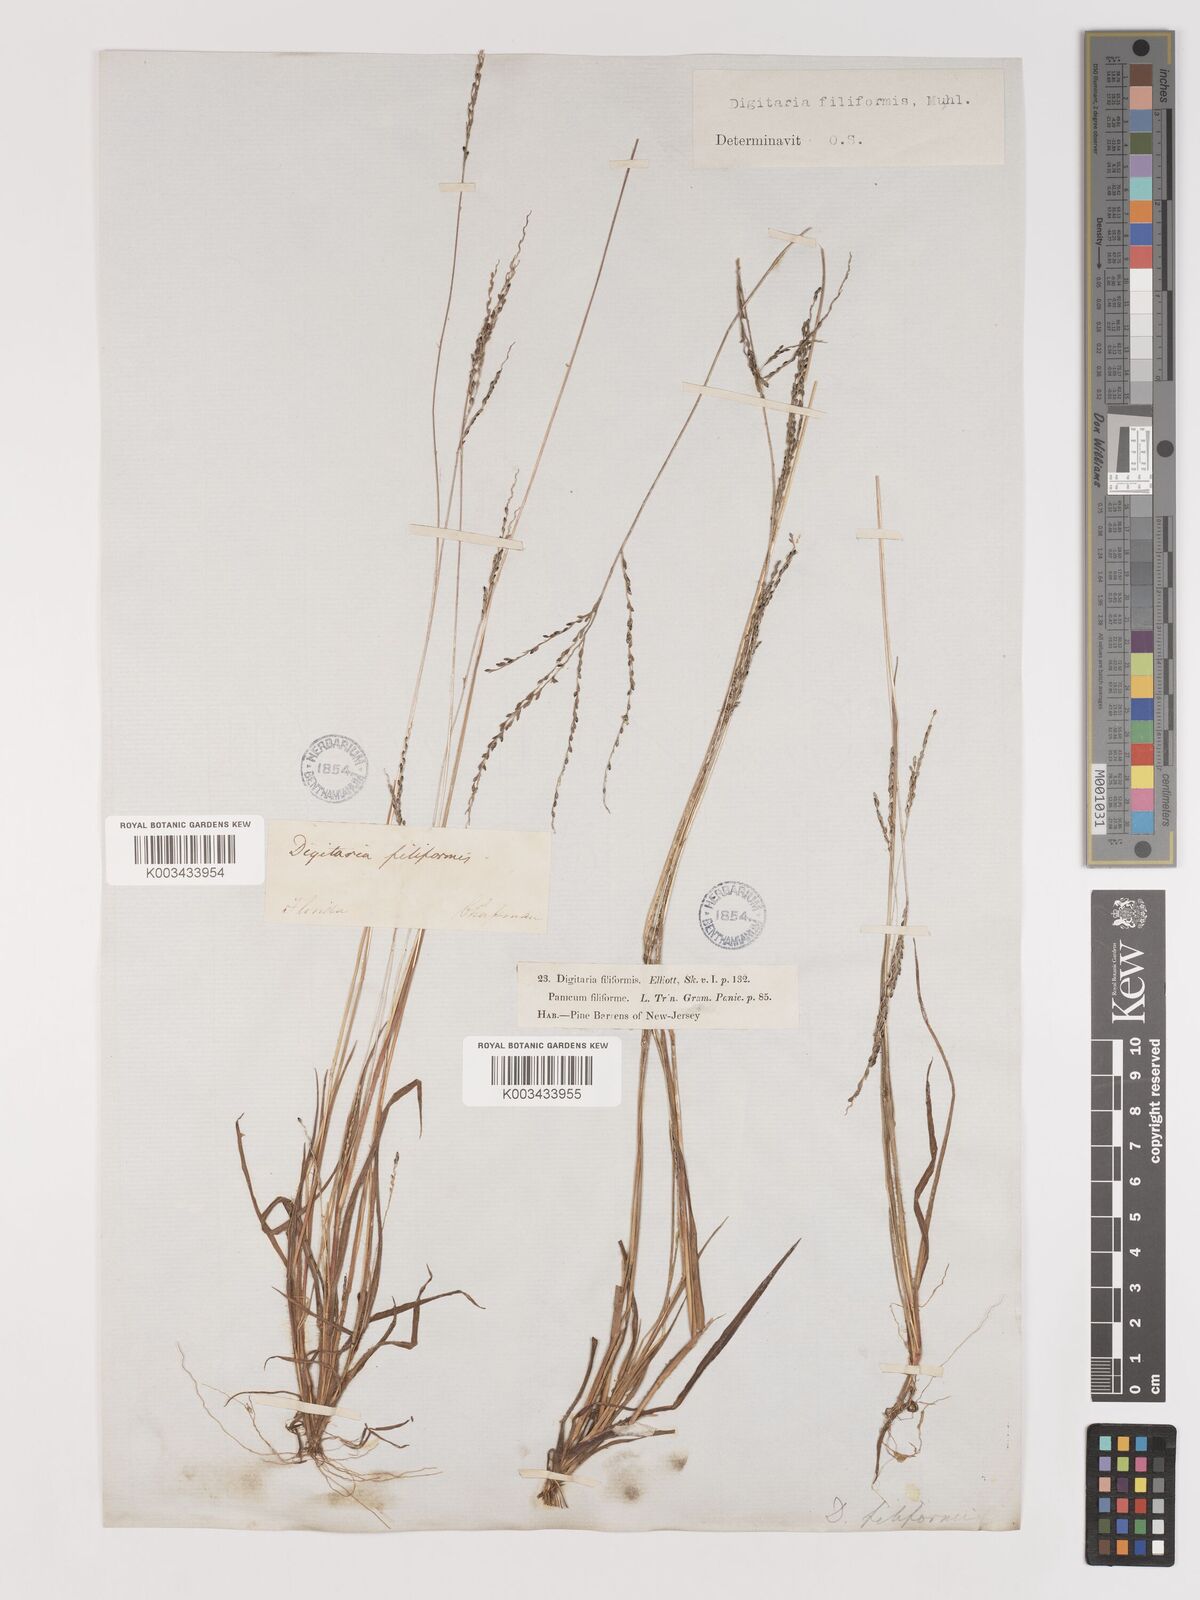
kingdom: Plantae
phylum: Tracheophyta
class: Liliopsida
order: Poales
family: Poaceae
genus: Digitaria
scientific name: Digitaria filiformis
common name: Slender crabgrass
